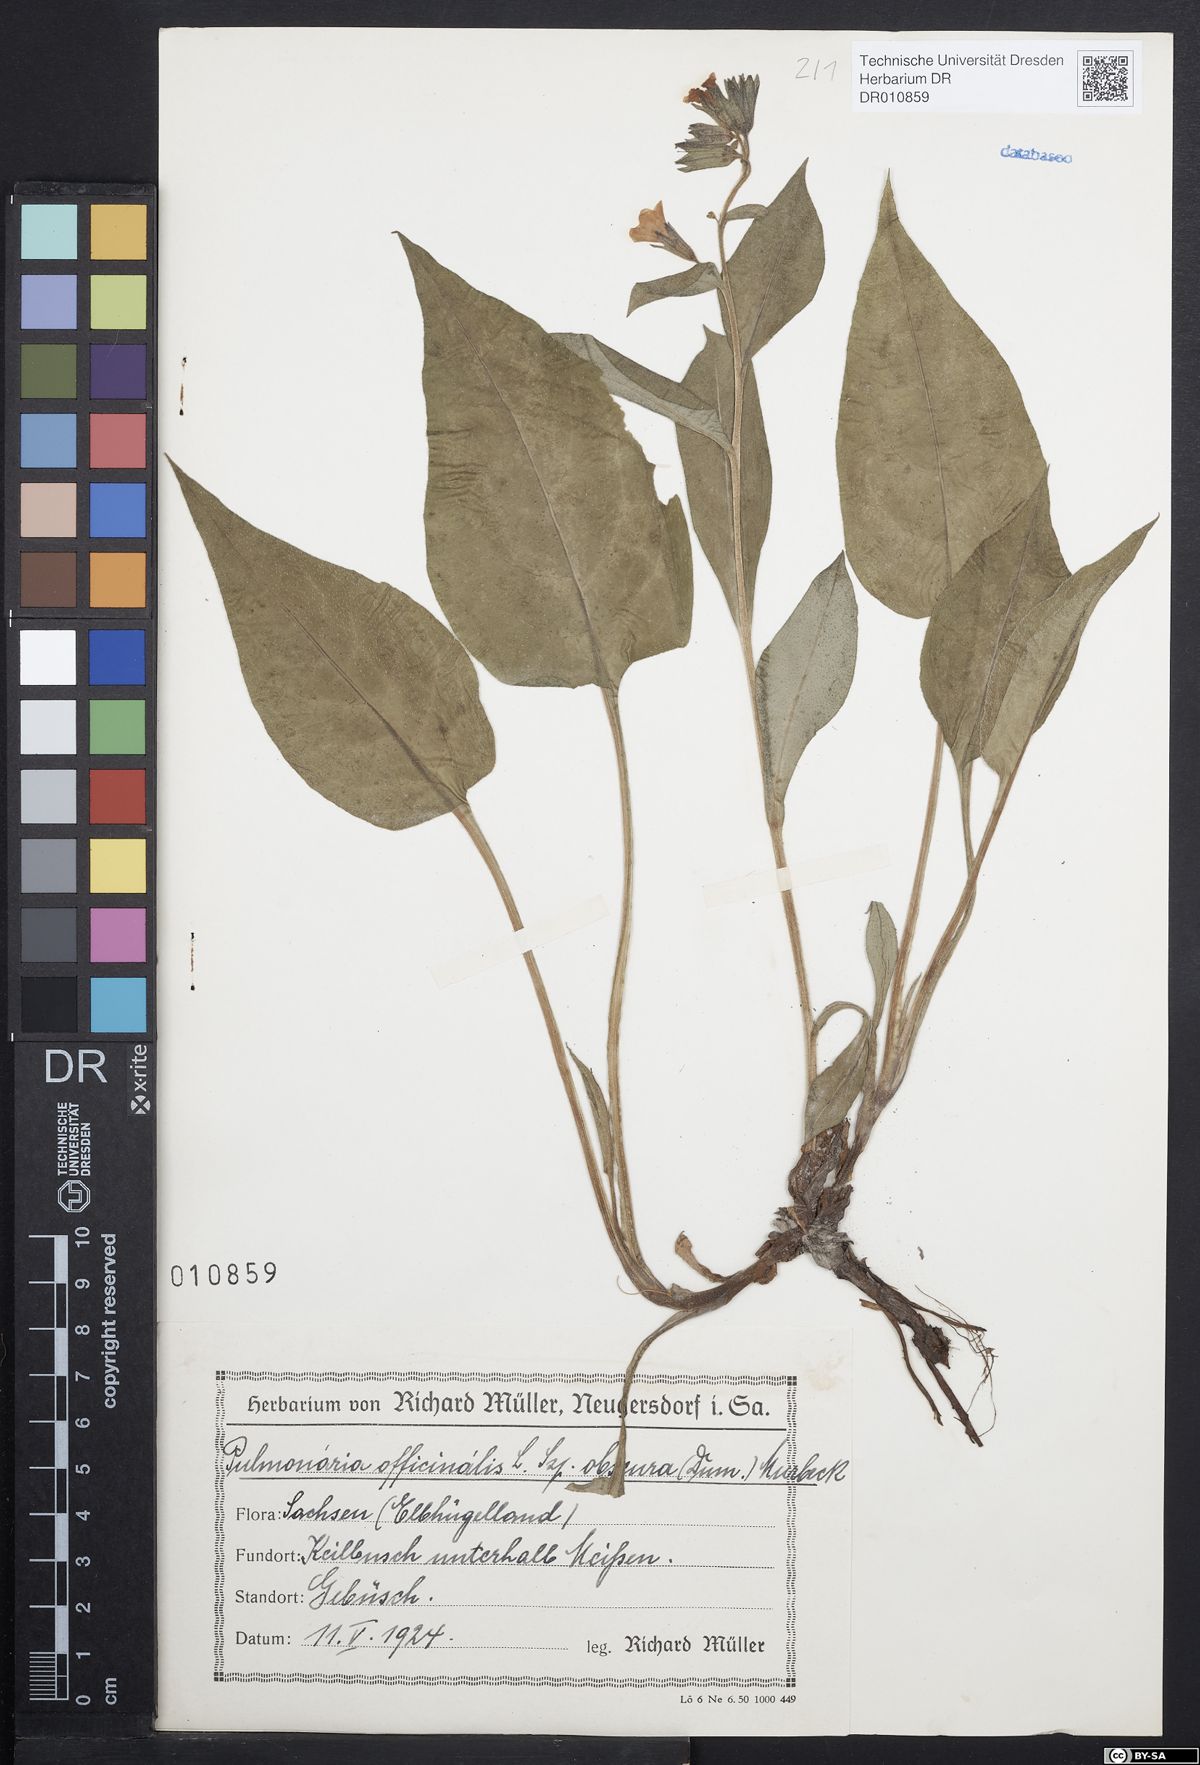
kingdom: Plantae
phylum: Tracheophyta
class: Magnoliopsida
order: Boraginales
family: Boraginaceae
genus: Pulmonaria
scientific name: Pulmonaria obscura
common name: Suffolk lungwort
